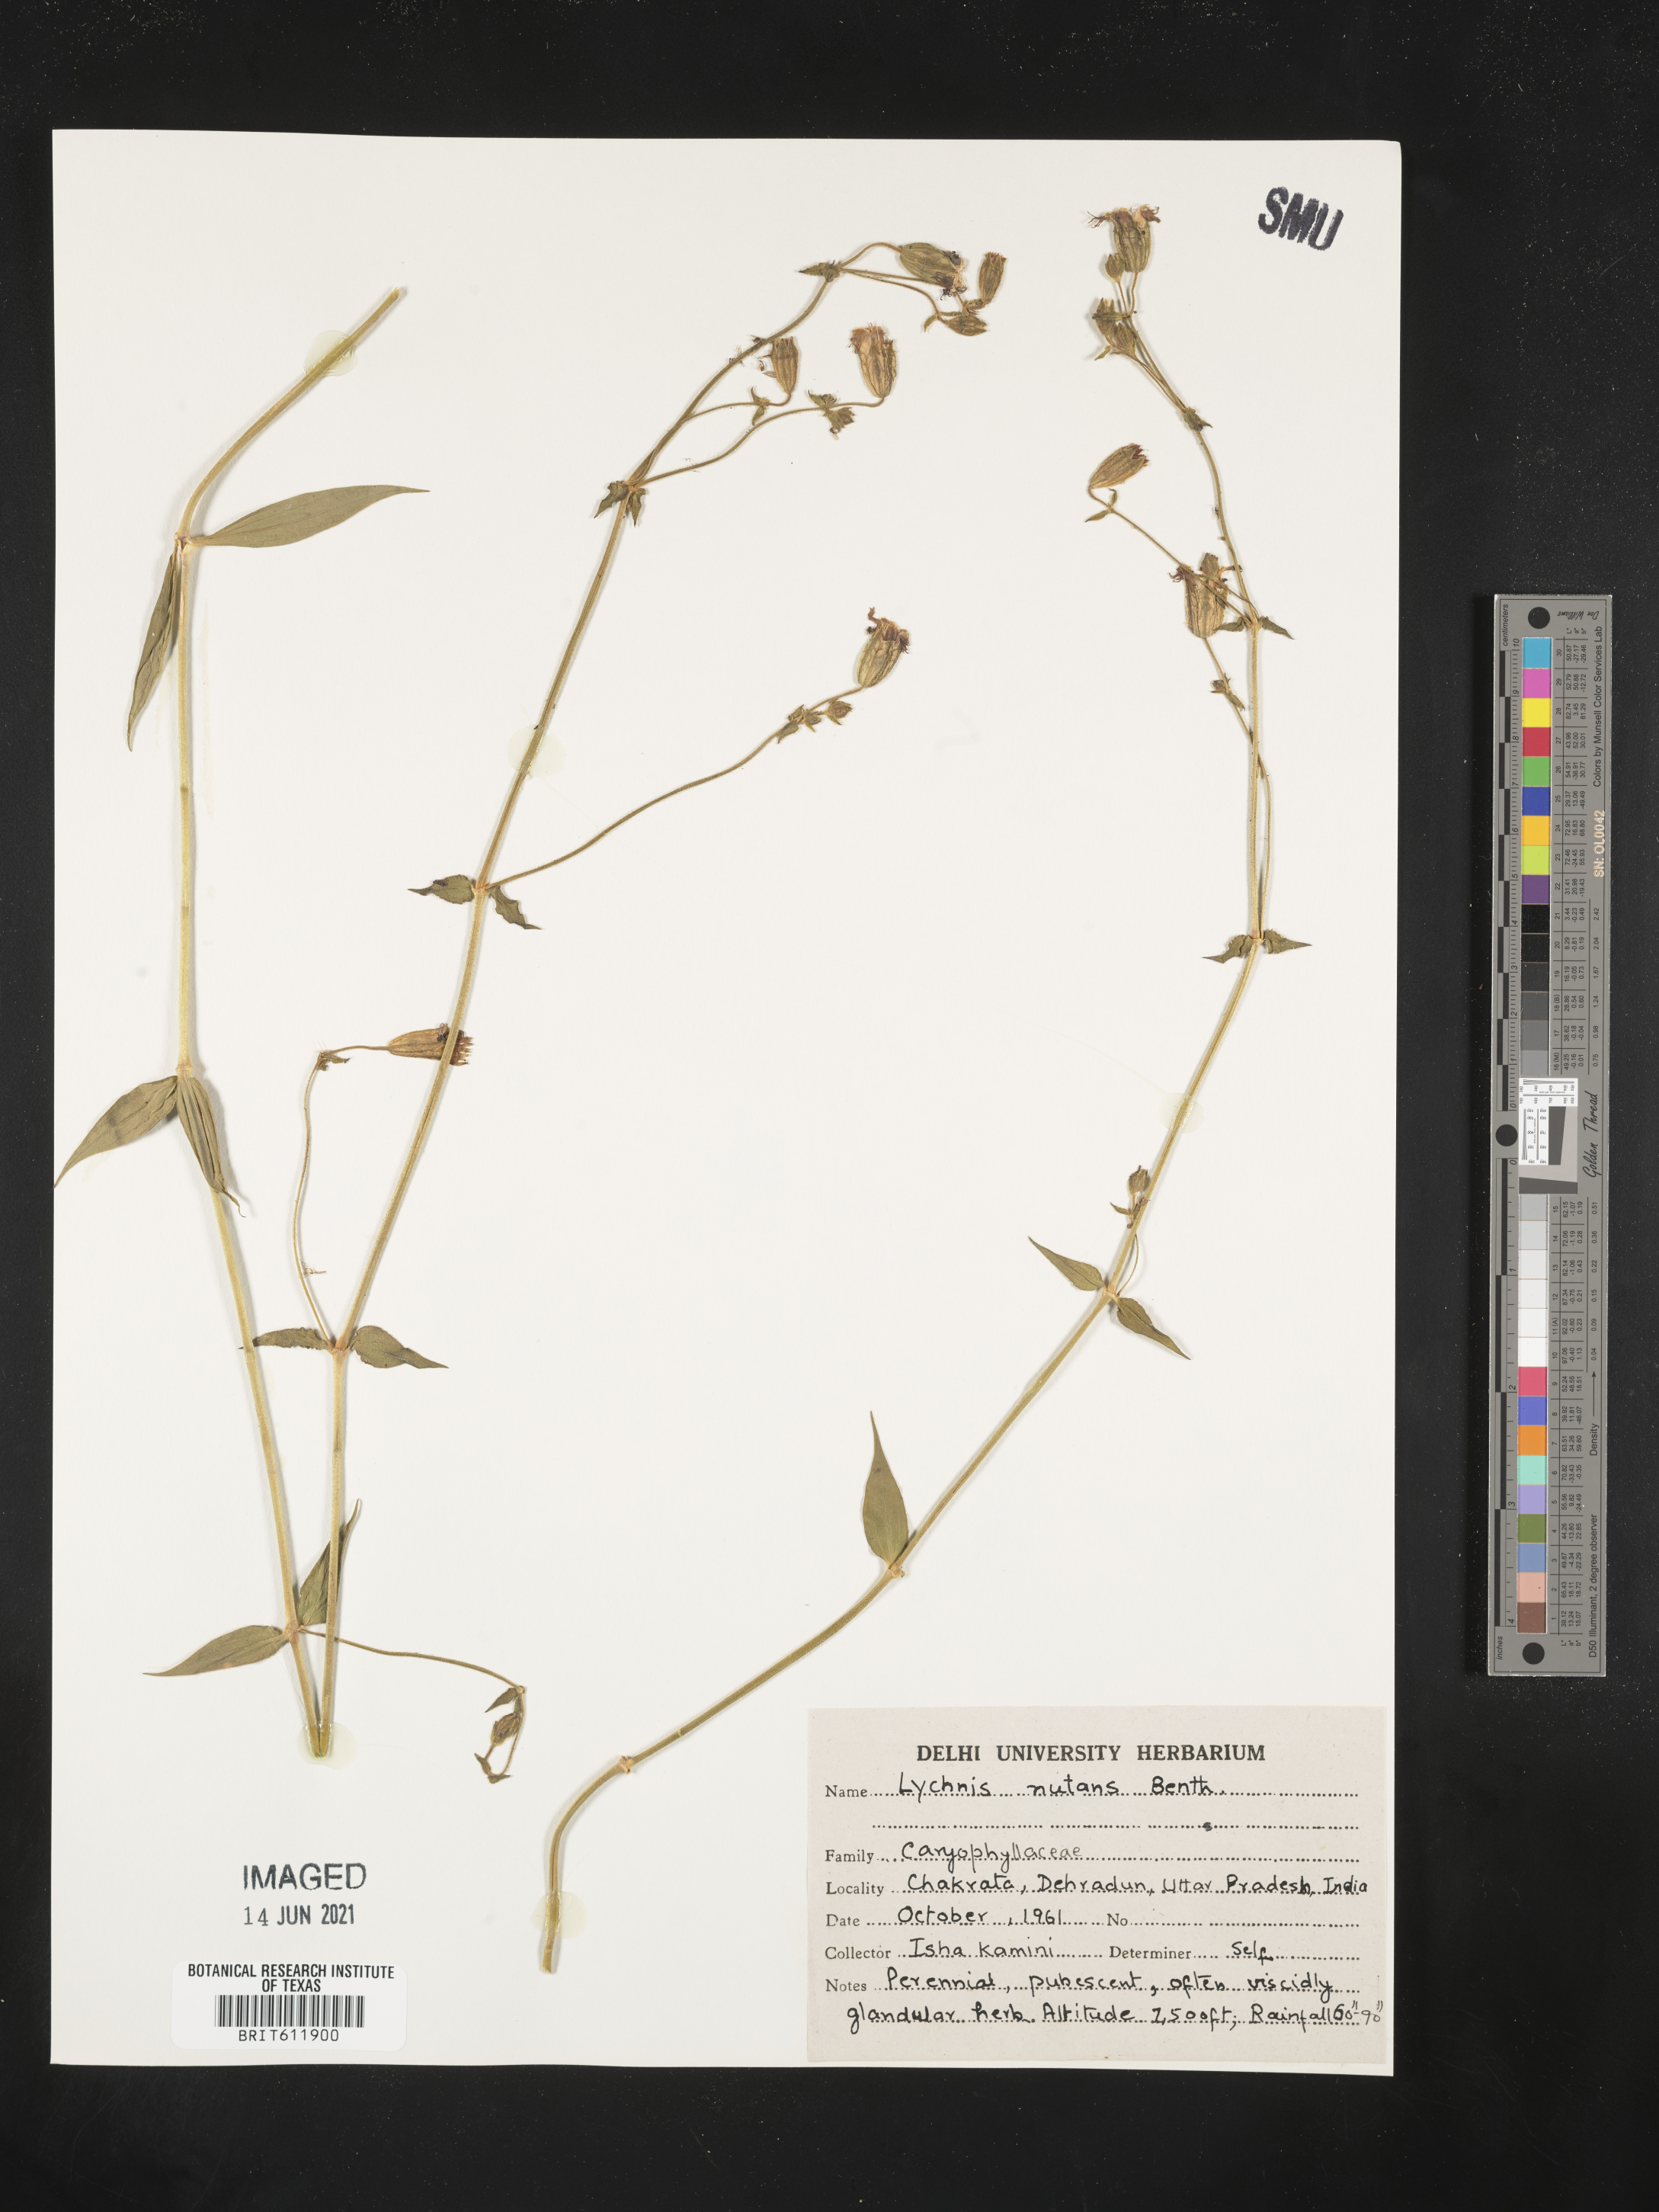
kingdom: Plantae
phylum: Tracheophyta
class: Magnoliopsida
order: Caryophyllales
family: Caryophyllaceae
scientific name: Caryophyllaceae
